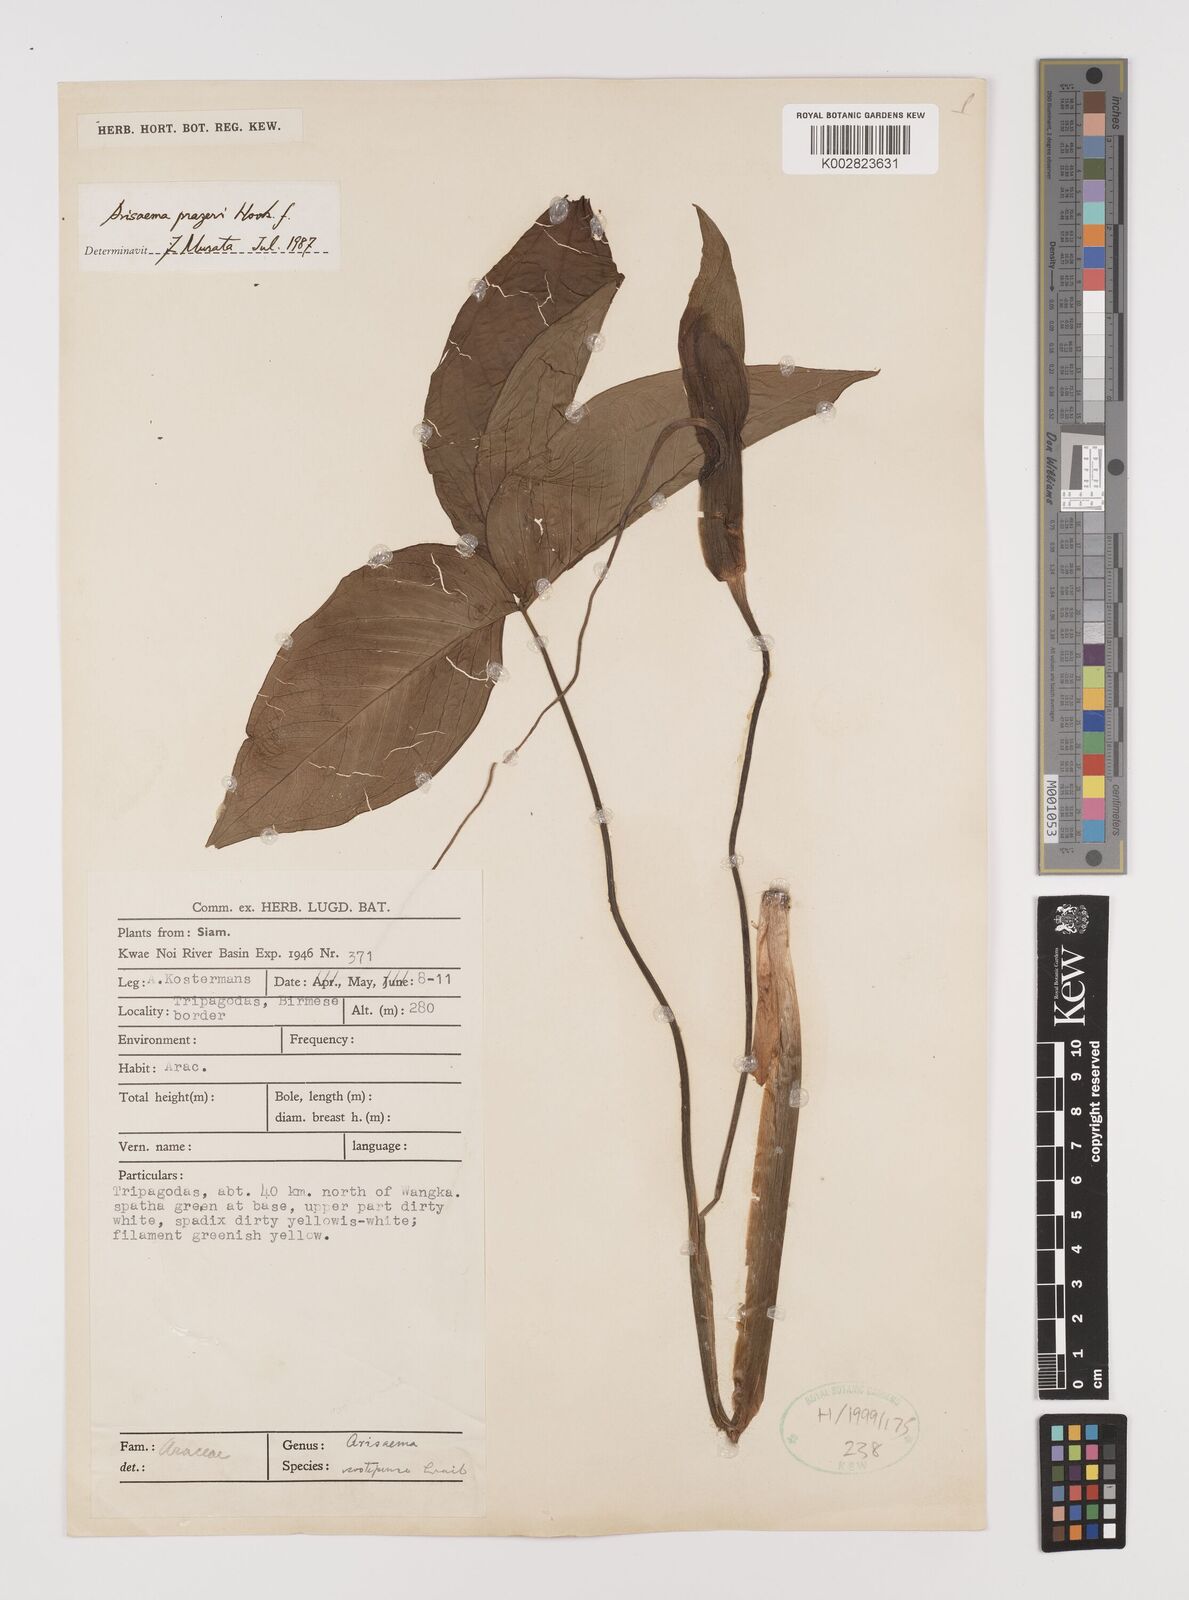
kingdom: Plantae
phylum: Tracheophyta
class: Liliopsida
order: Alismatales
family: Araceae
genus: Arisaema
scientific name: Arisaema prazeri
